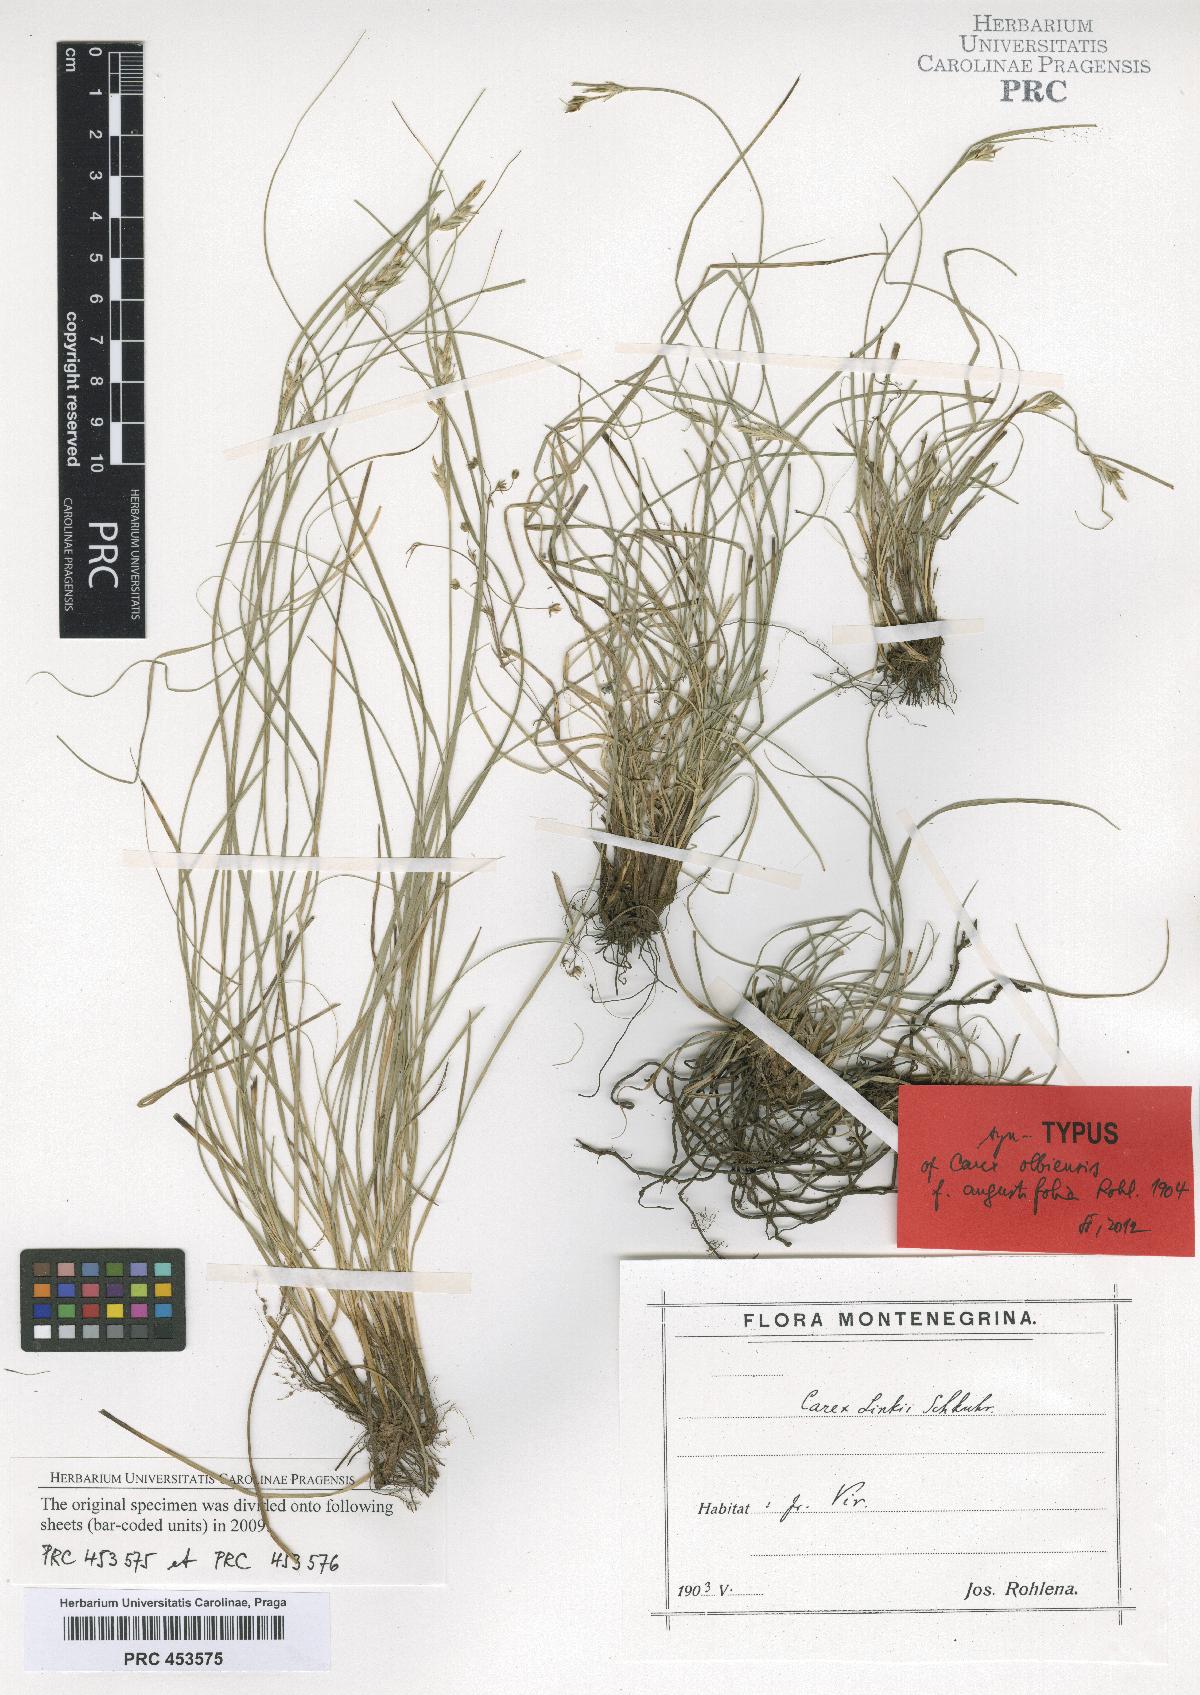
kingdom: Plantae
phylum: Tracheophyta
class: Liliopsida
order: Poales
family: Cyperaceae
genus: Carex
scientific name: Carex distachya
